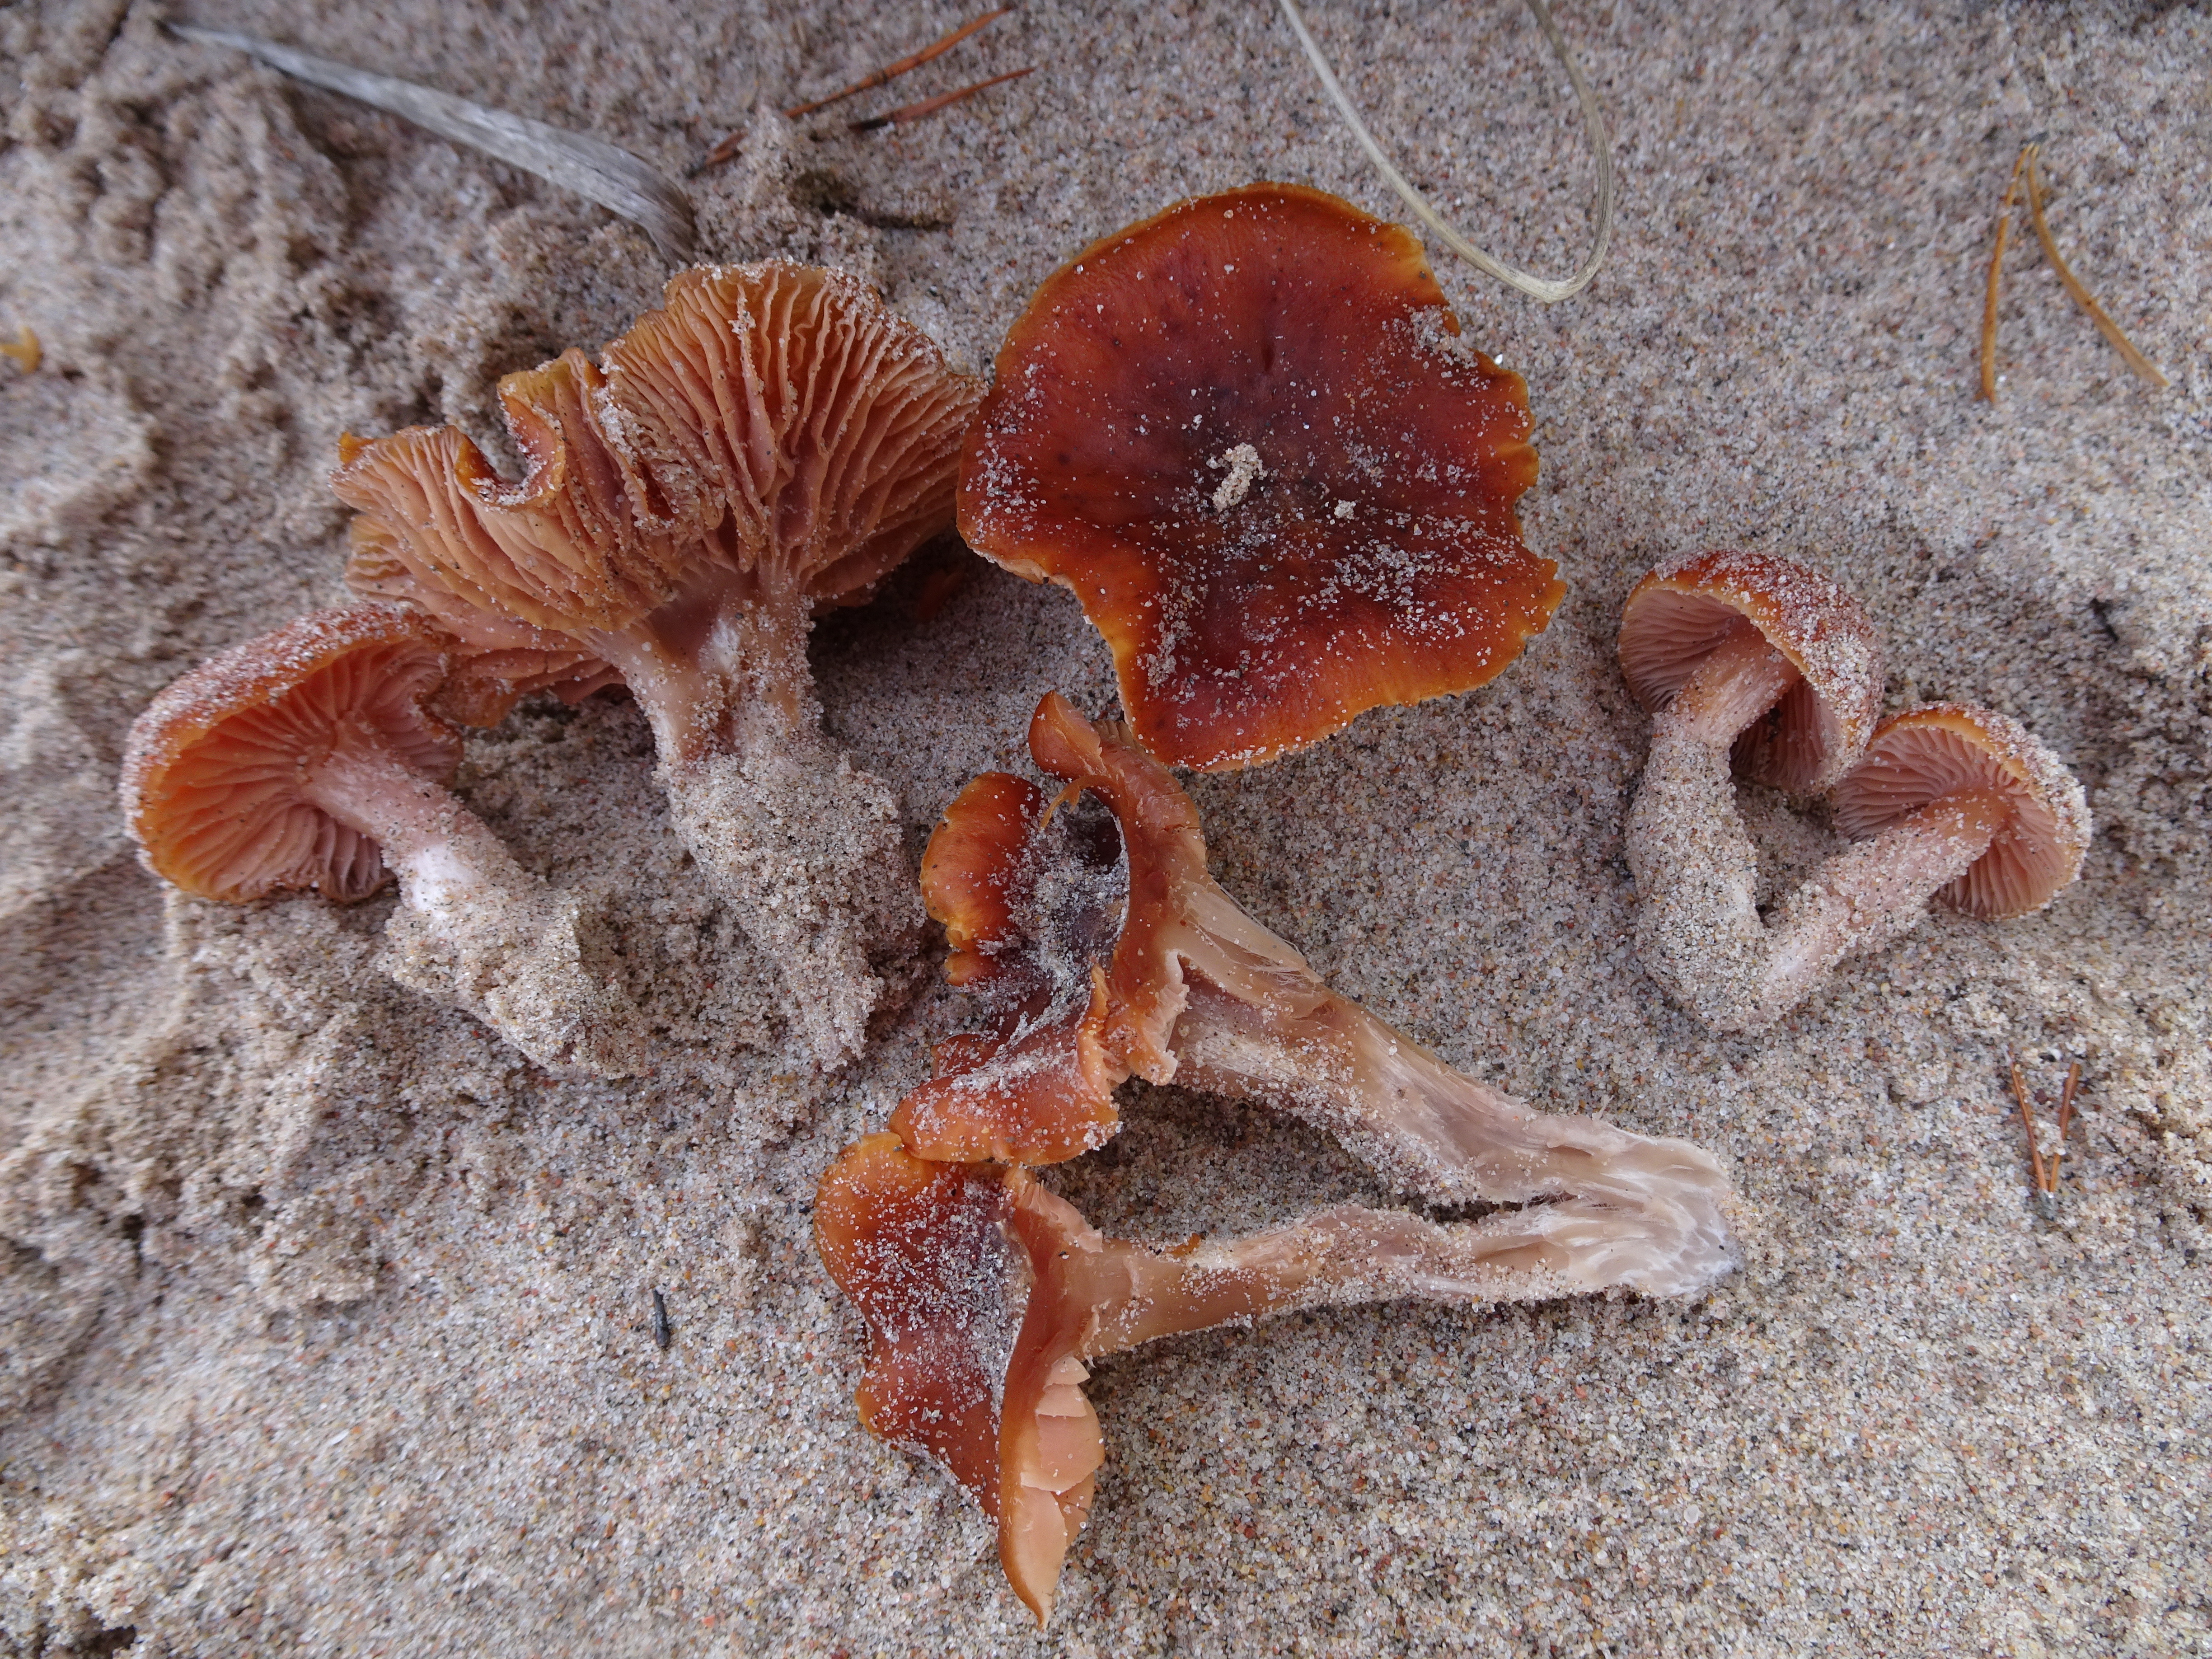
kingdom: Fungi
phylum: Basidiomycota
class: Agaricomycetes
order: Agaricales
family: Hydnangiaceae
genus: Laccaria
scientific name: Laccaria maritima
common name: Sand deceiver
